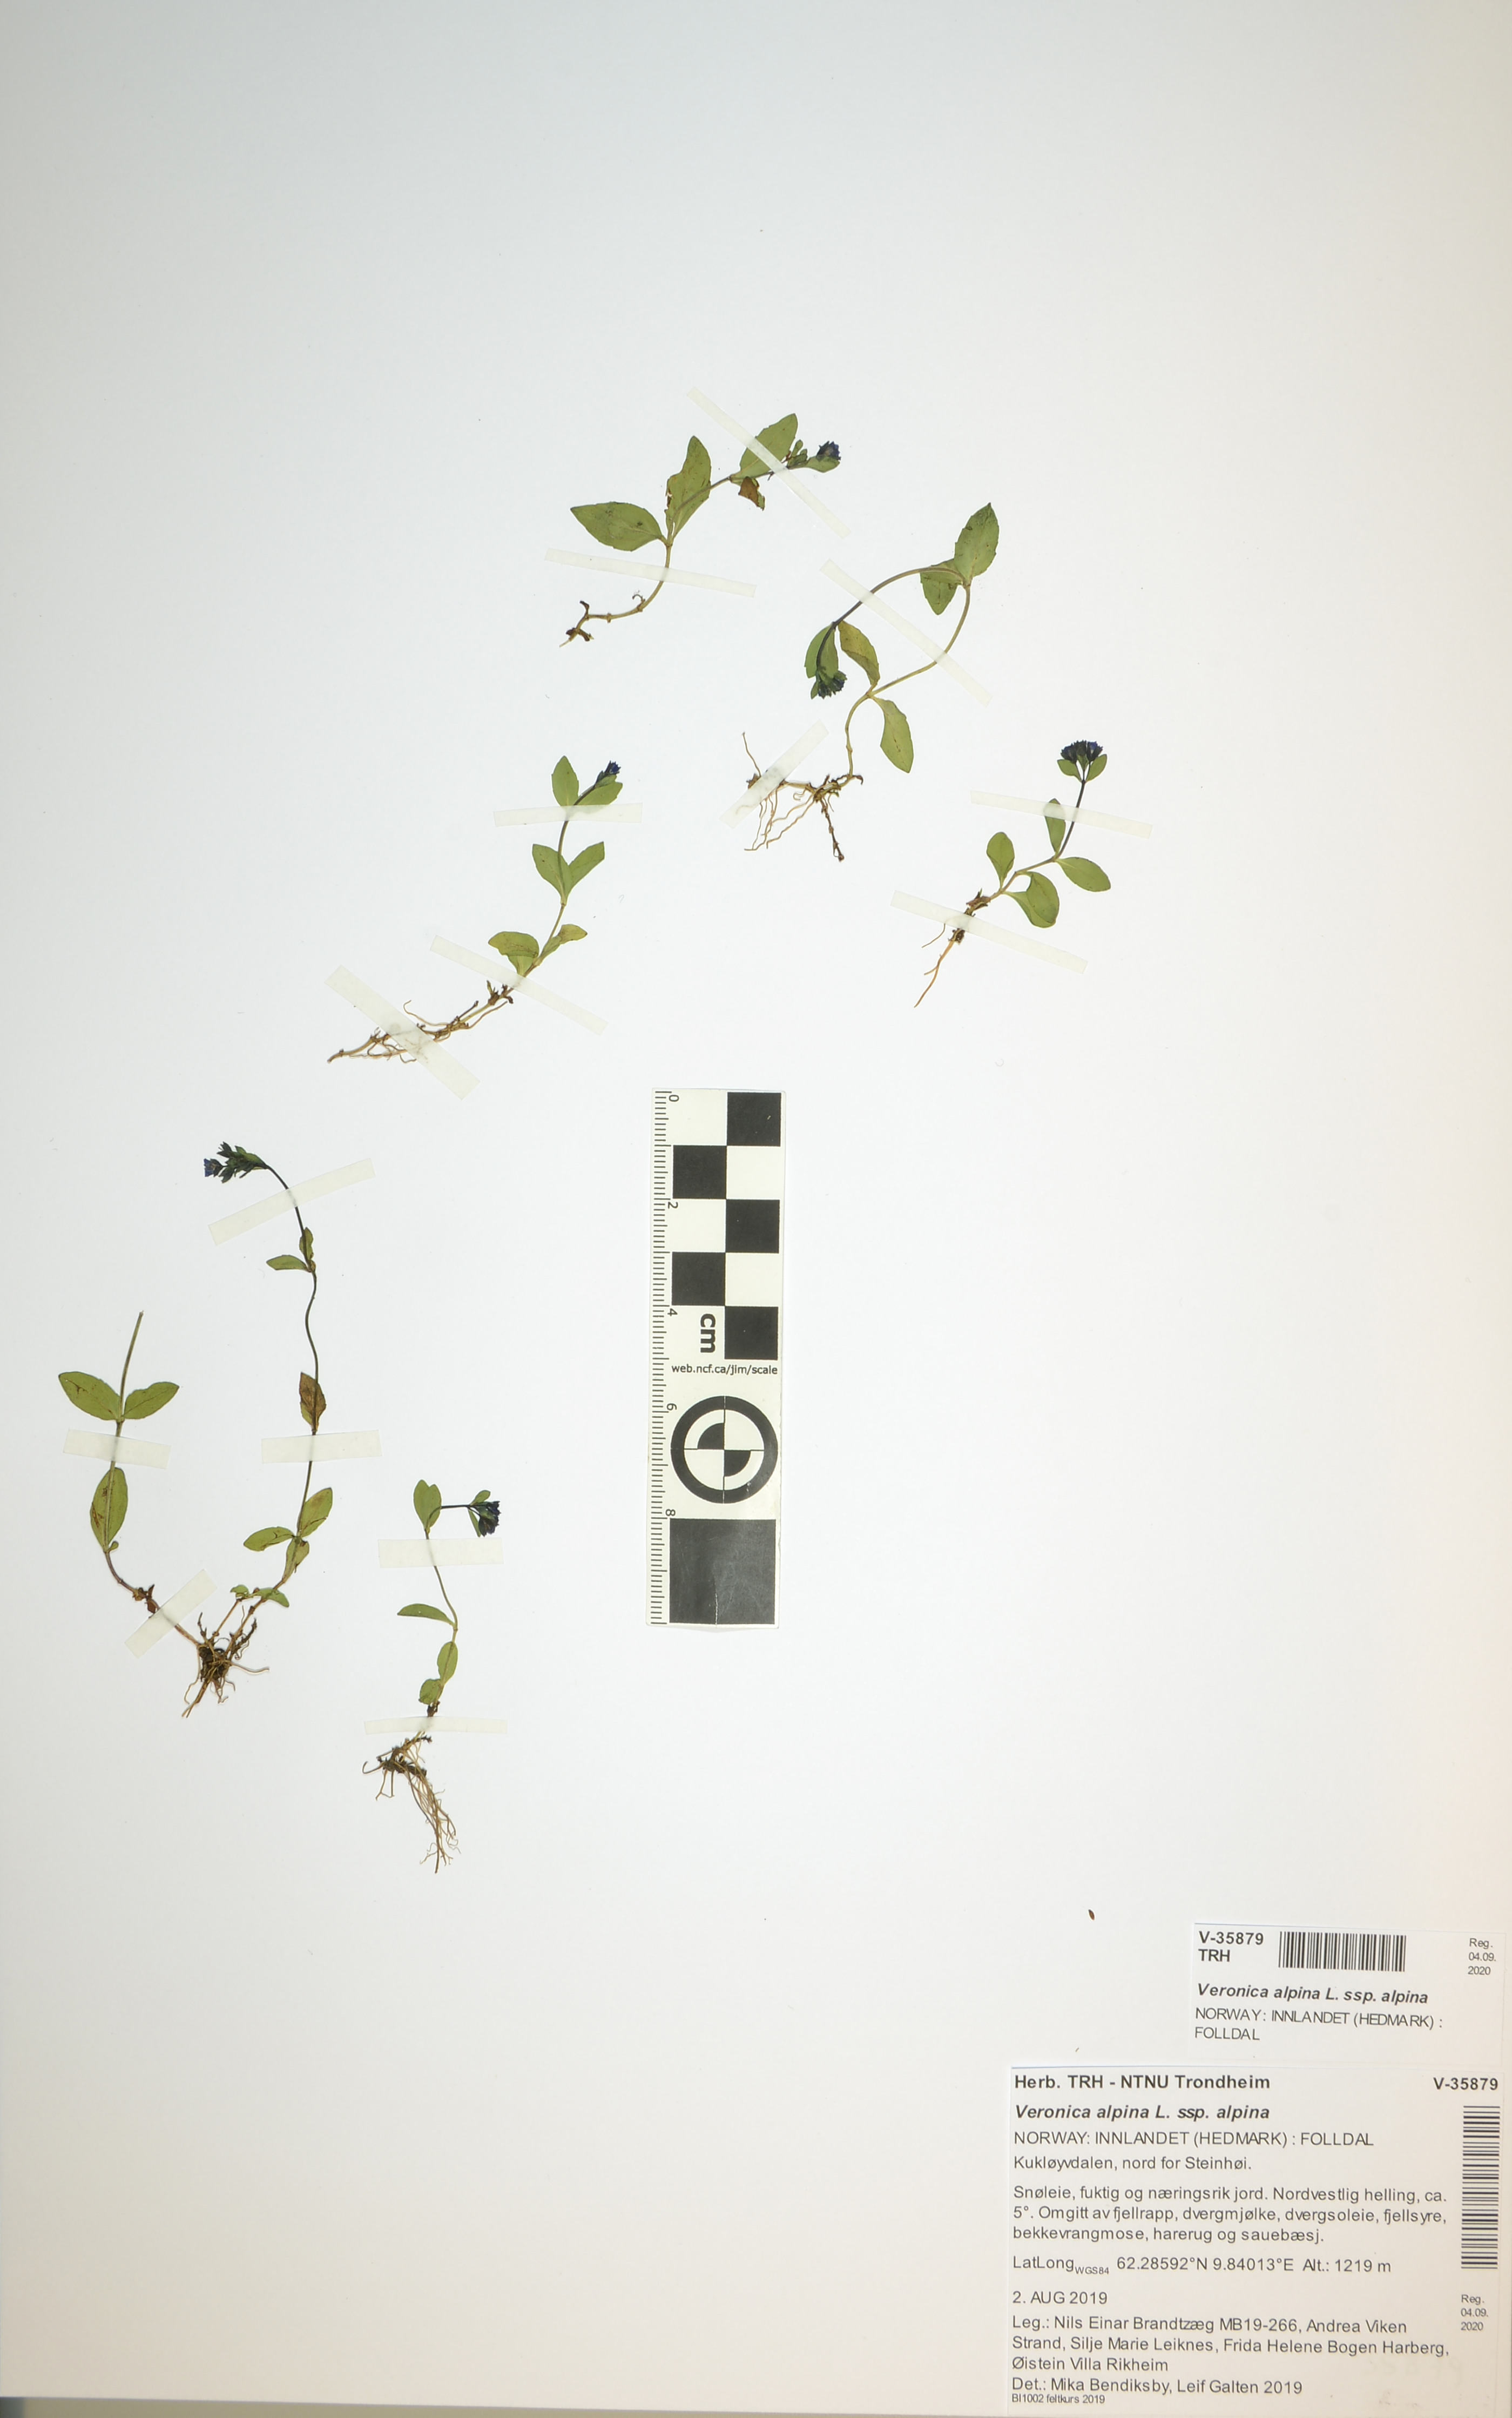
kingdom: Plantae
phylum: Tracheophyta
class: Magnoliopsida
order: Lamiales
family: Plantaginaceae
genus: Veronica
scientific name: Veronica alpina
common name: Alpine speedwell
